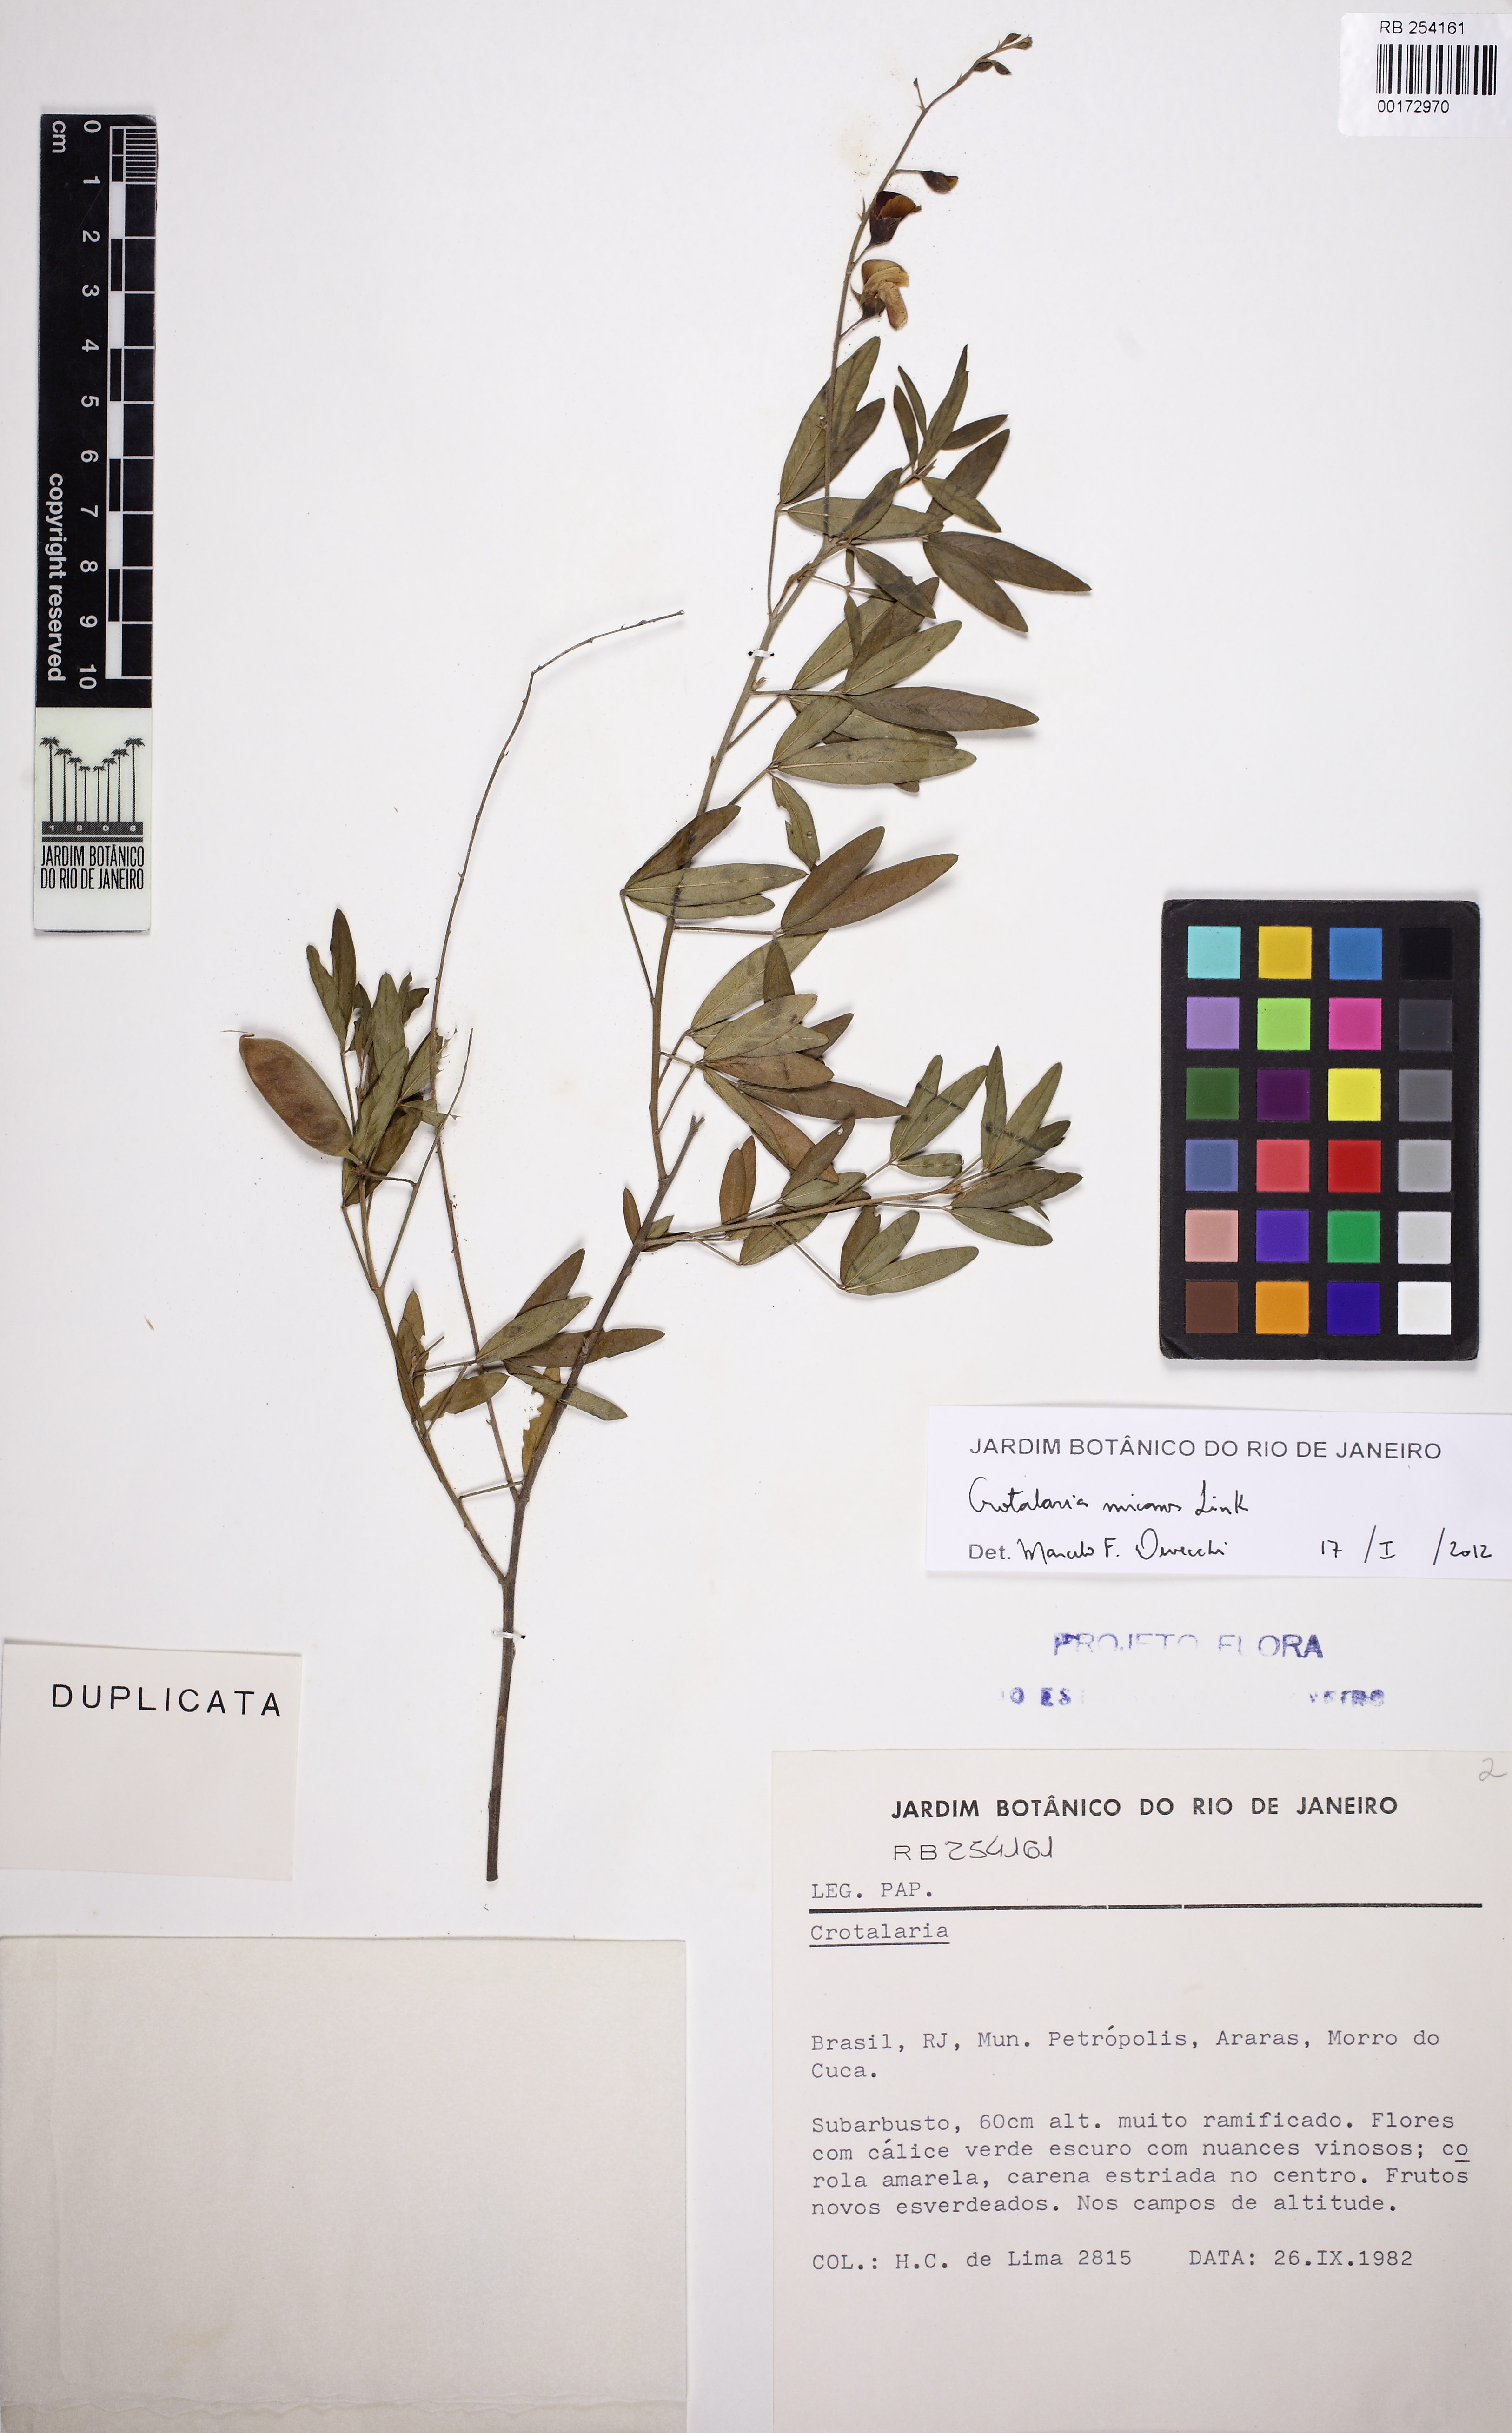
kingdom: Plantae
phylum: Tracheophyta
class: Magnoliopsida
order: Fabales
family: Fabaceae
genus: Crotalaria
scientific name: Crotalaria micans
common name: Caracas rattlebox
